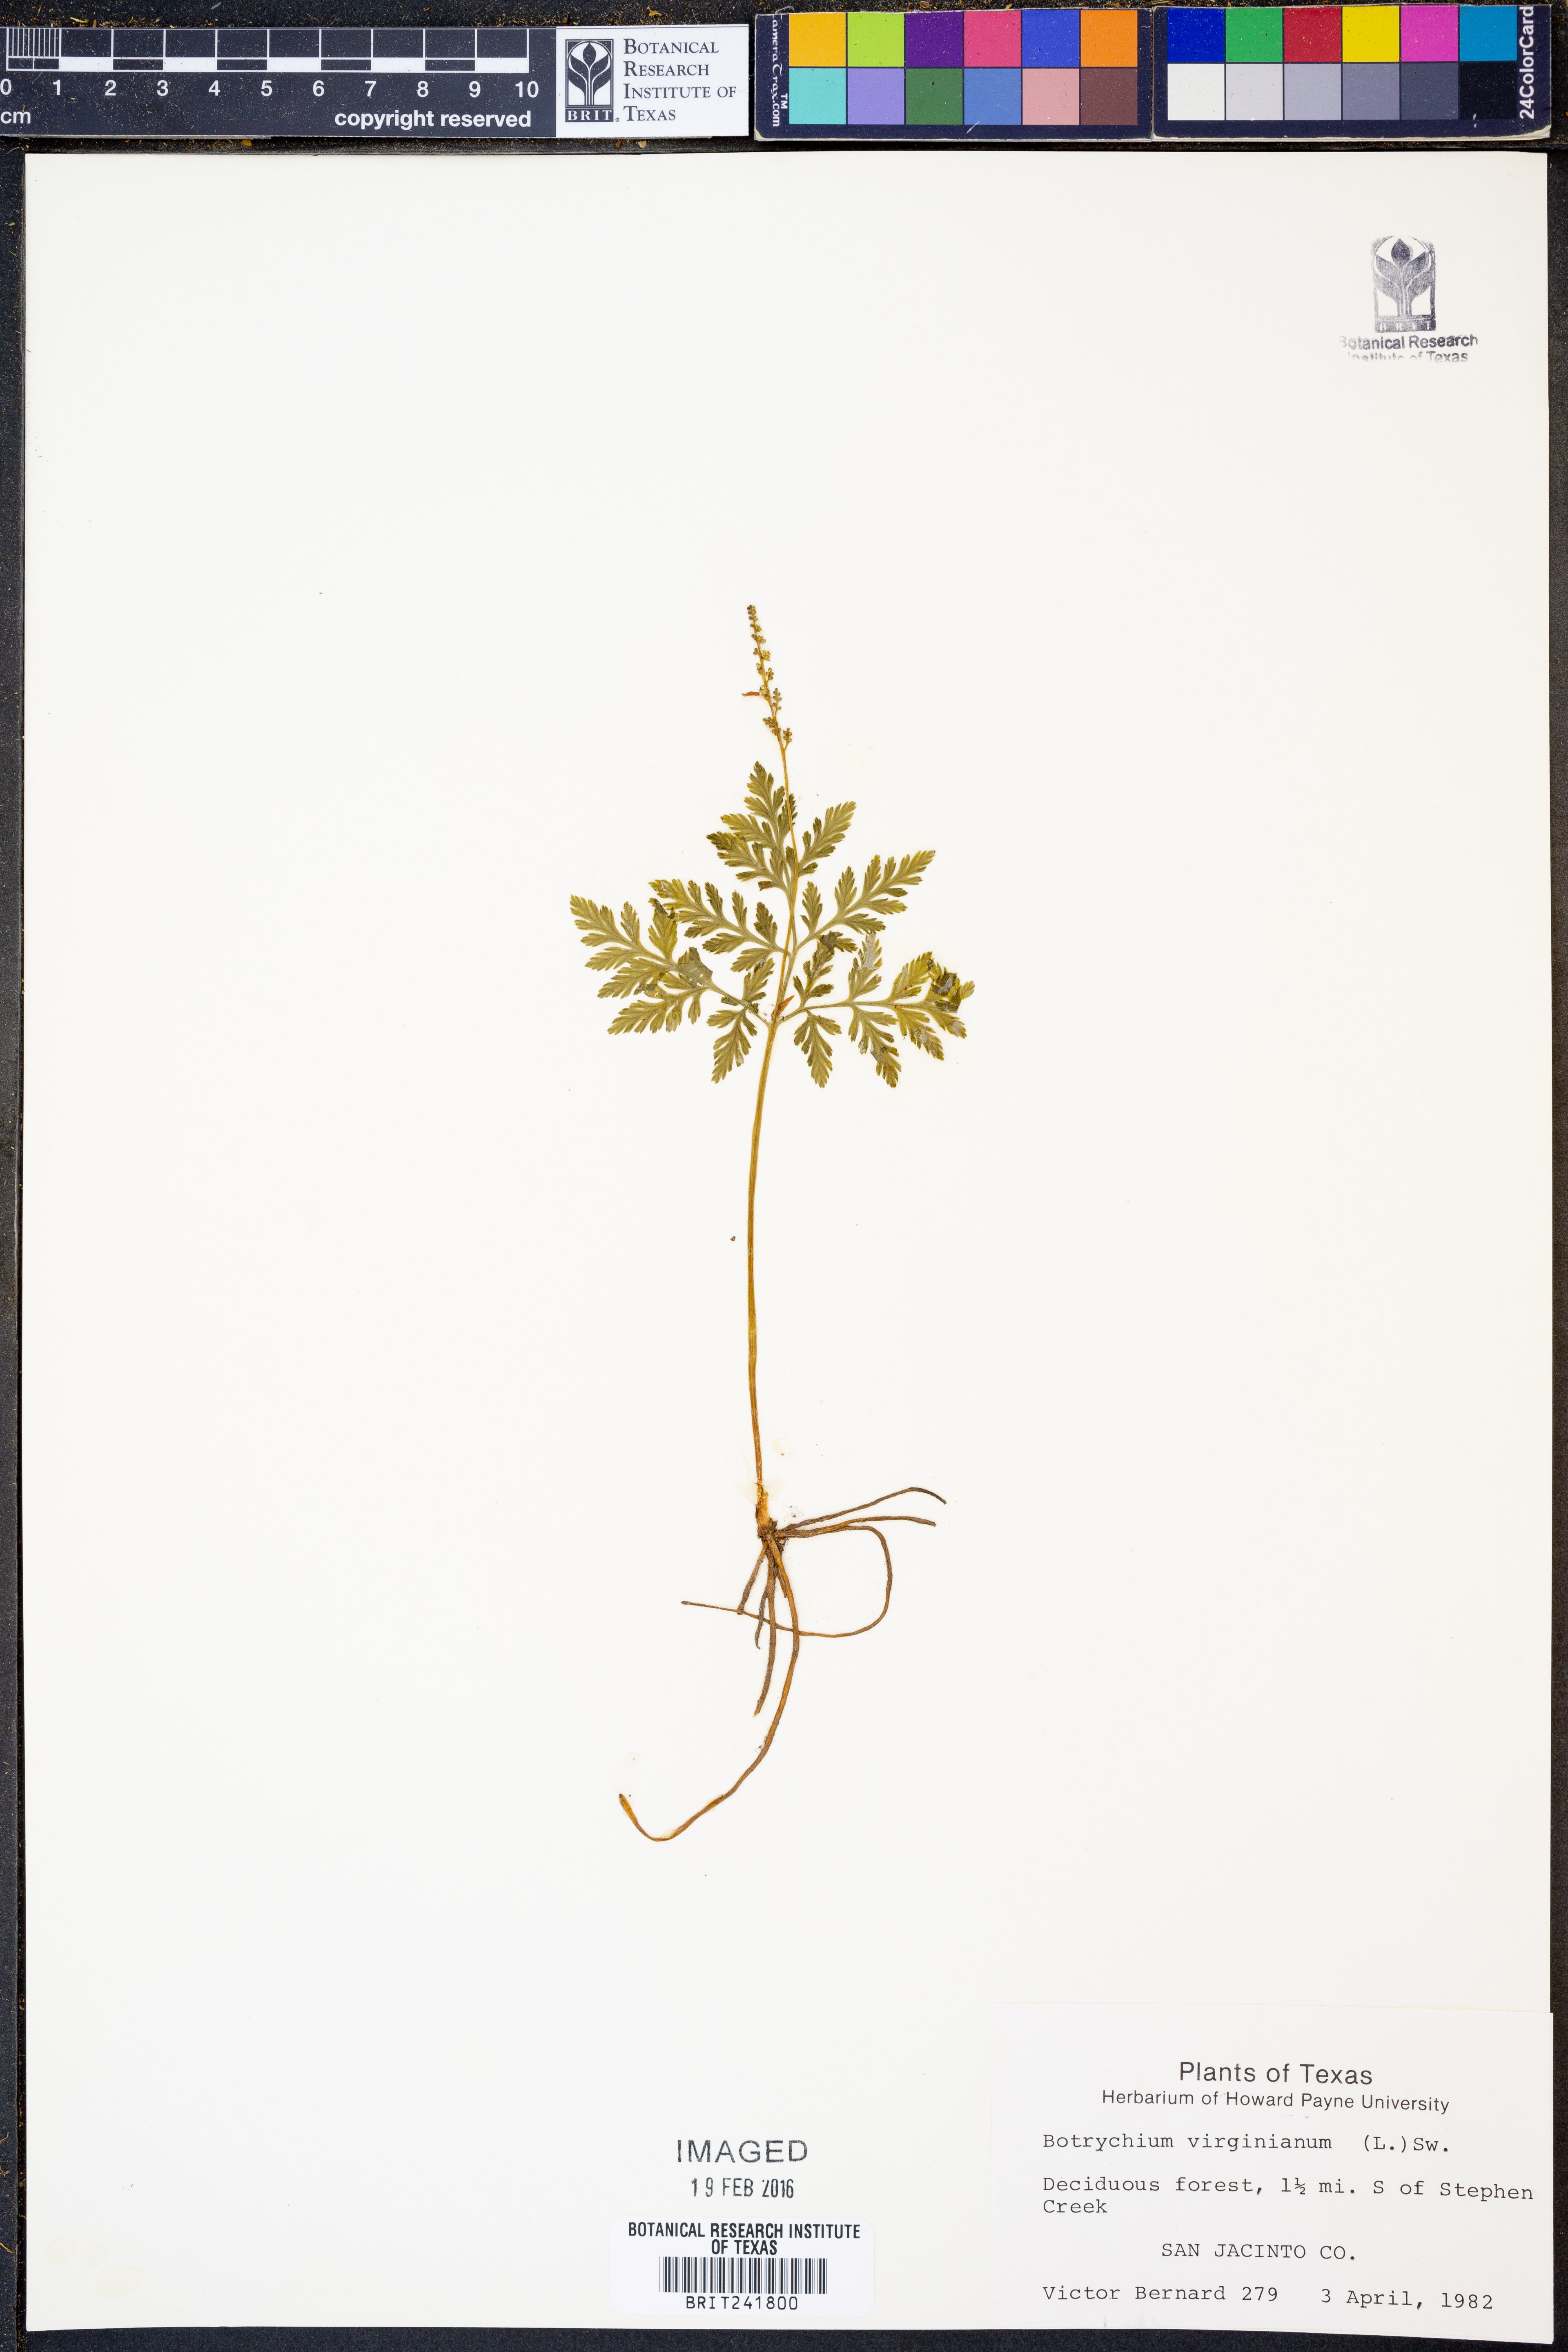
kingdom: Plantae
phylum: Tracheophyta
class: Polypodiopsida
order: Ophioglossales
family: Ophioglossaceae
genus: Botrypus
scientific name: Botrypus virginianus
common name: Common grapefern
